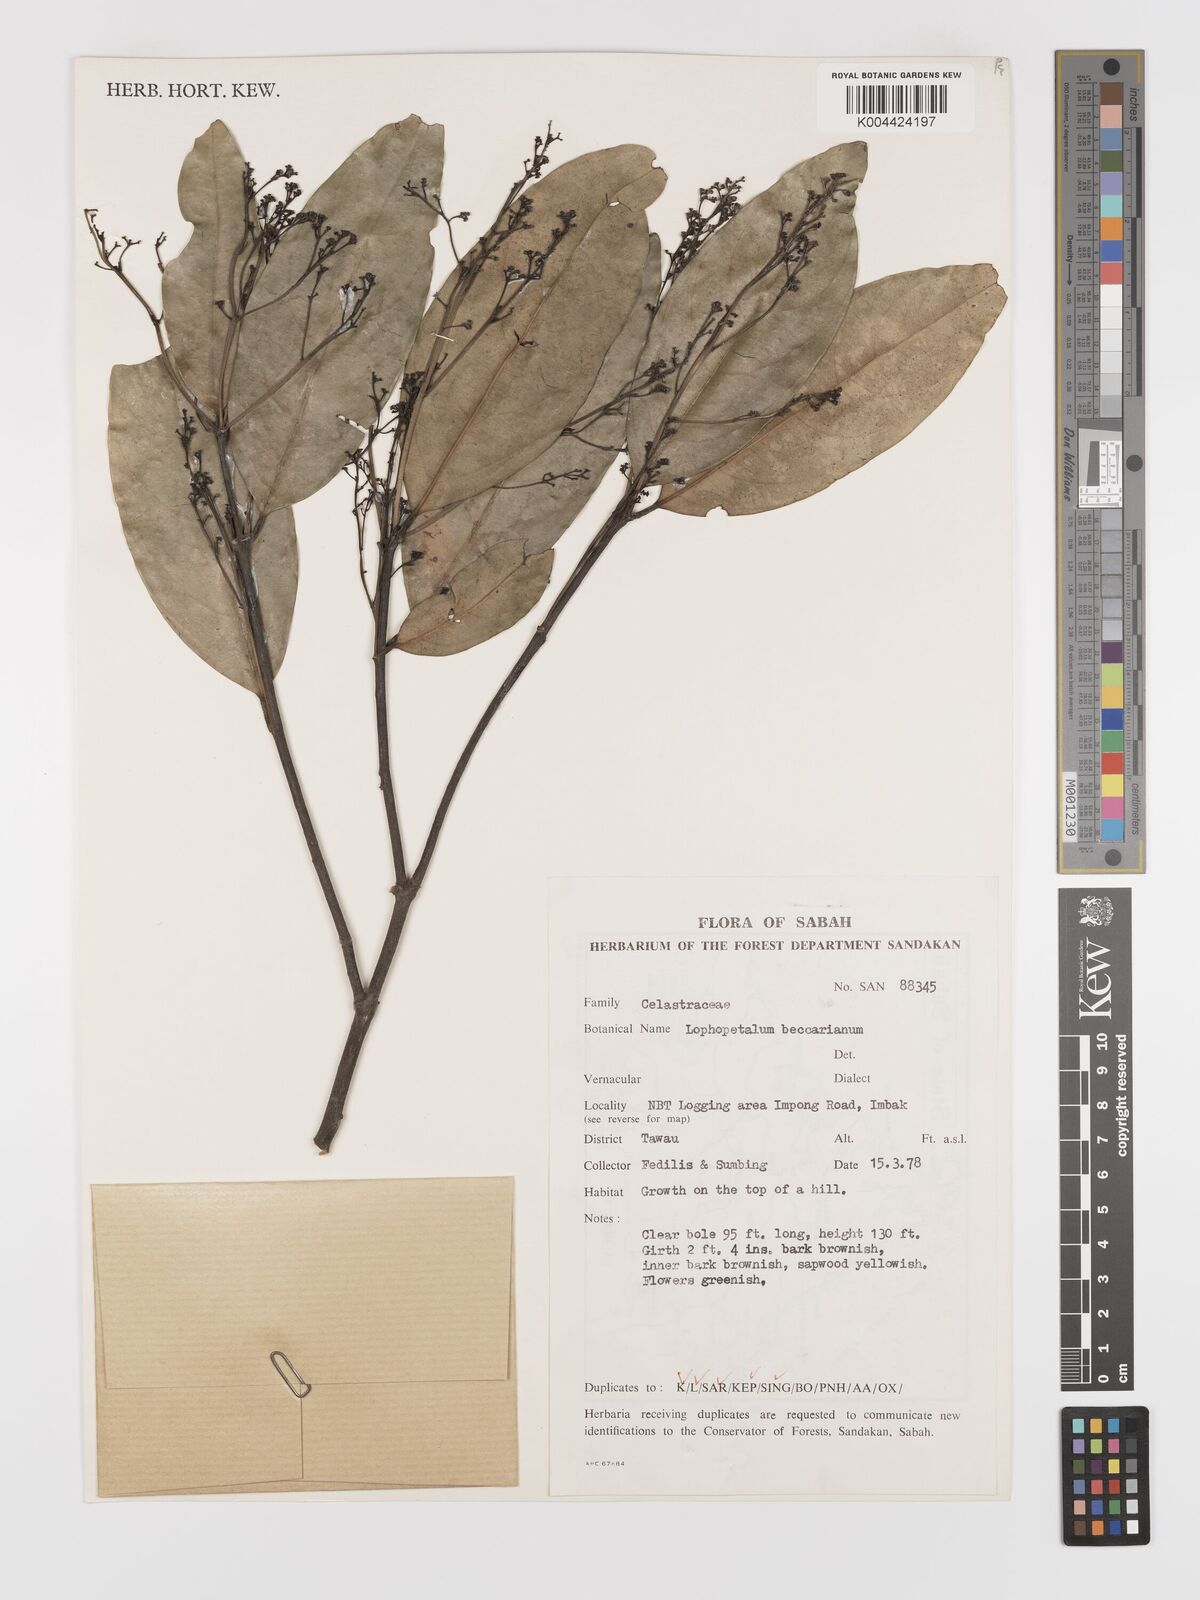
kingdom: Plantae
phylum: Tracheophyta
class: Magnoliopsida
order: Celastrales
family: Celastraceae
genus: Lophopetalum
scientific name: Lophopetalum beccarianum
